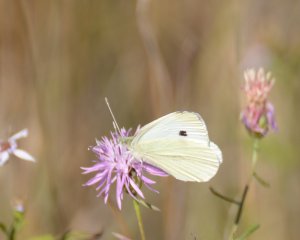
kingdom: Animalia
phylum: Arthropoda
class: Insecta
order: Lepidoptera
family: Pieridae
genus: Pieris
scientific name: Pieris rapae
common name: Cabbage White
